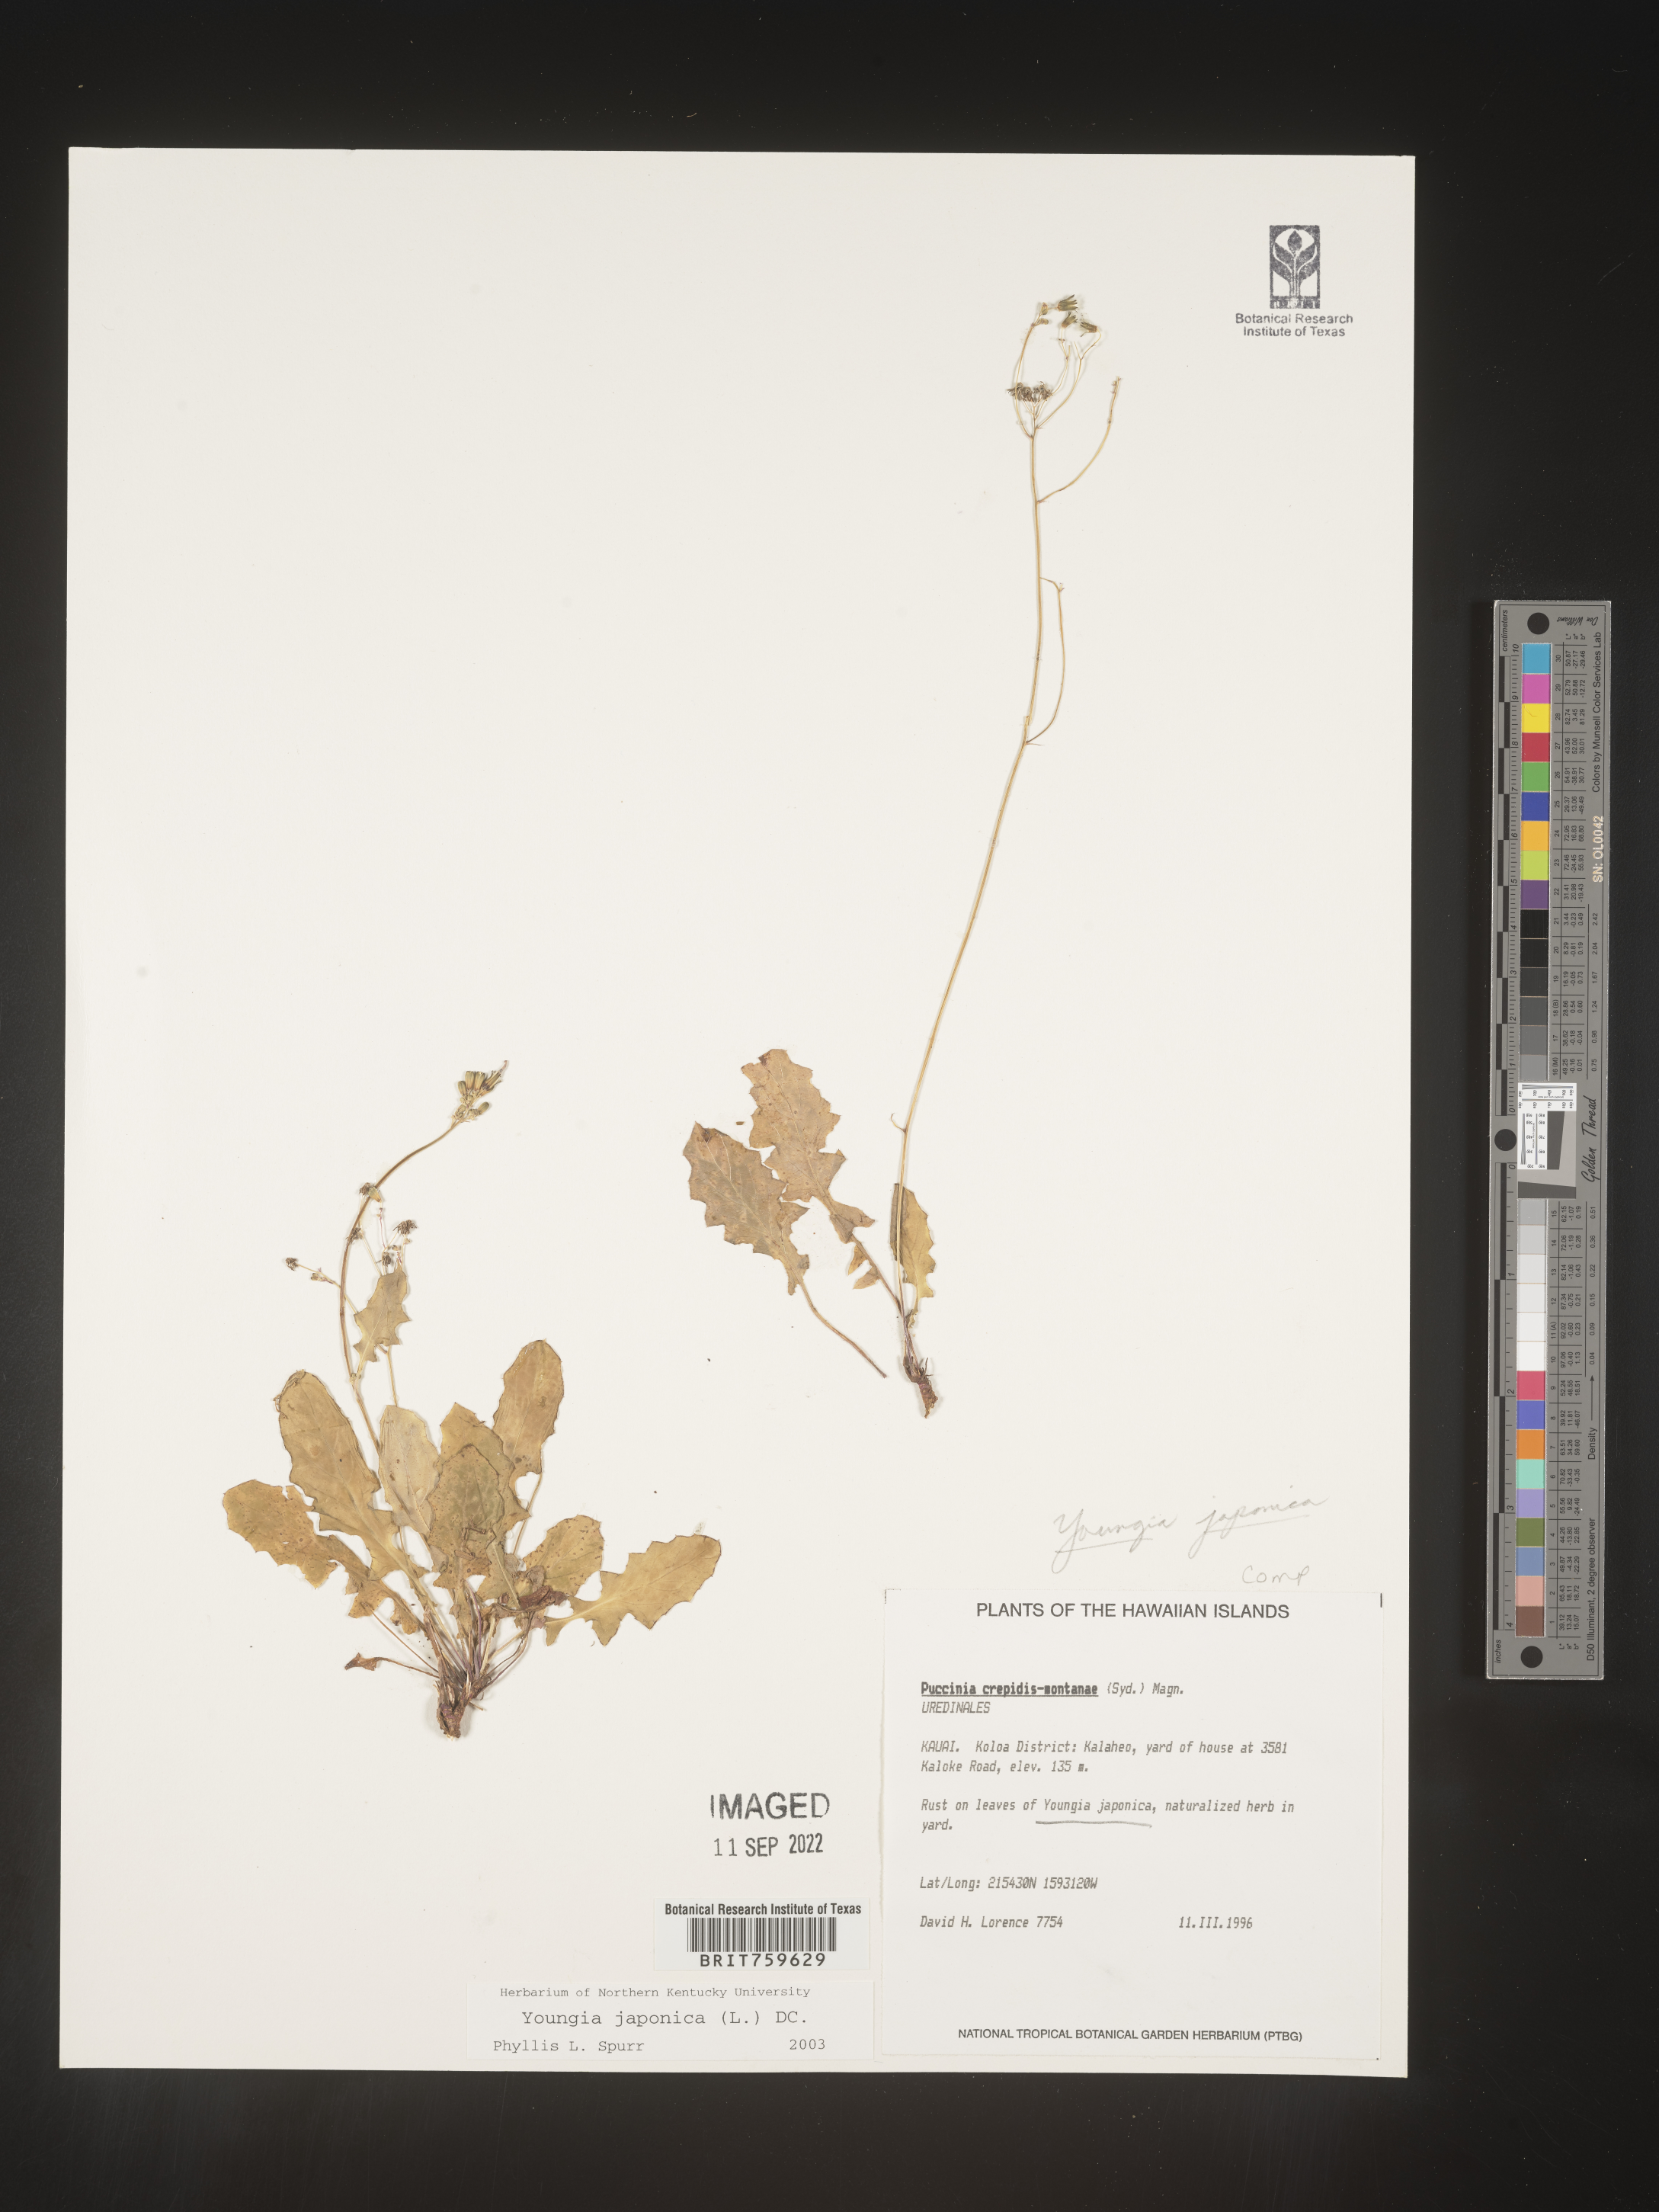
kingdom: Plantae
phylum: Tracheophyta
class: Magnoliopsida
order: Asterales
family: Asteraceae
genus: Youngia
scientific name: Youngia japonica
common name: Oriental false hawksbeard
